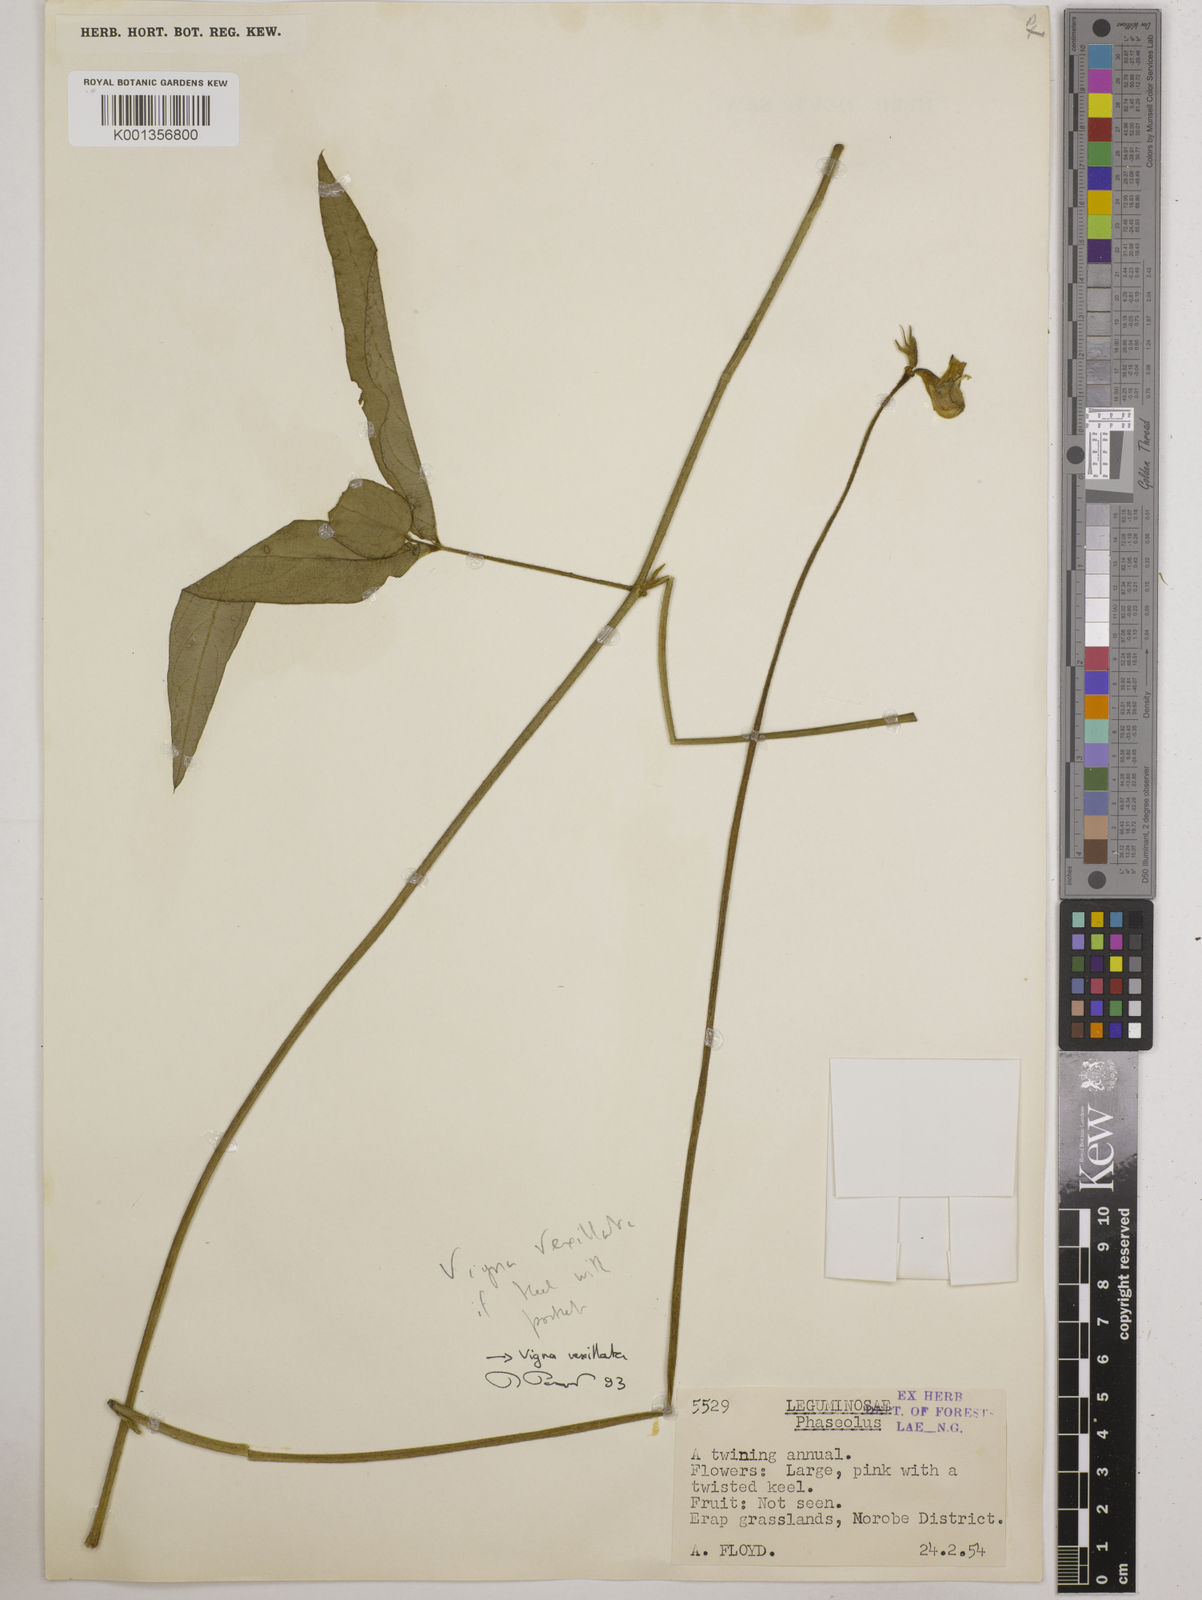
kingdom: Plantae
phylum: Tracheophyta
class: Magnoliopsida
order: Fabales
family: Fabaceae
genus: Vigna
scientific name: Vigna vexillata
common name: Zombi pea
